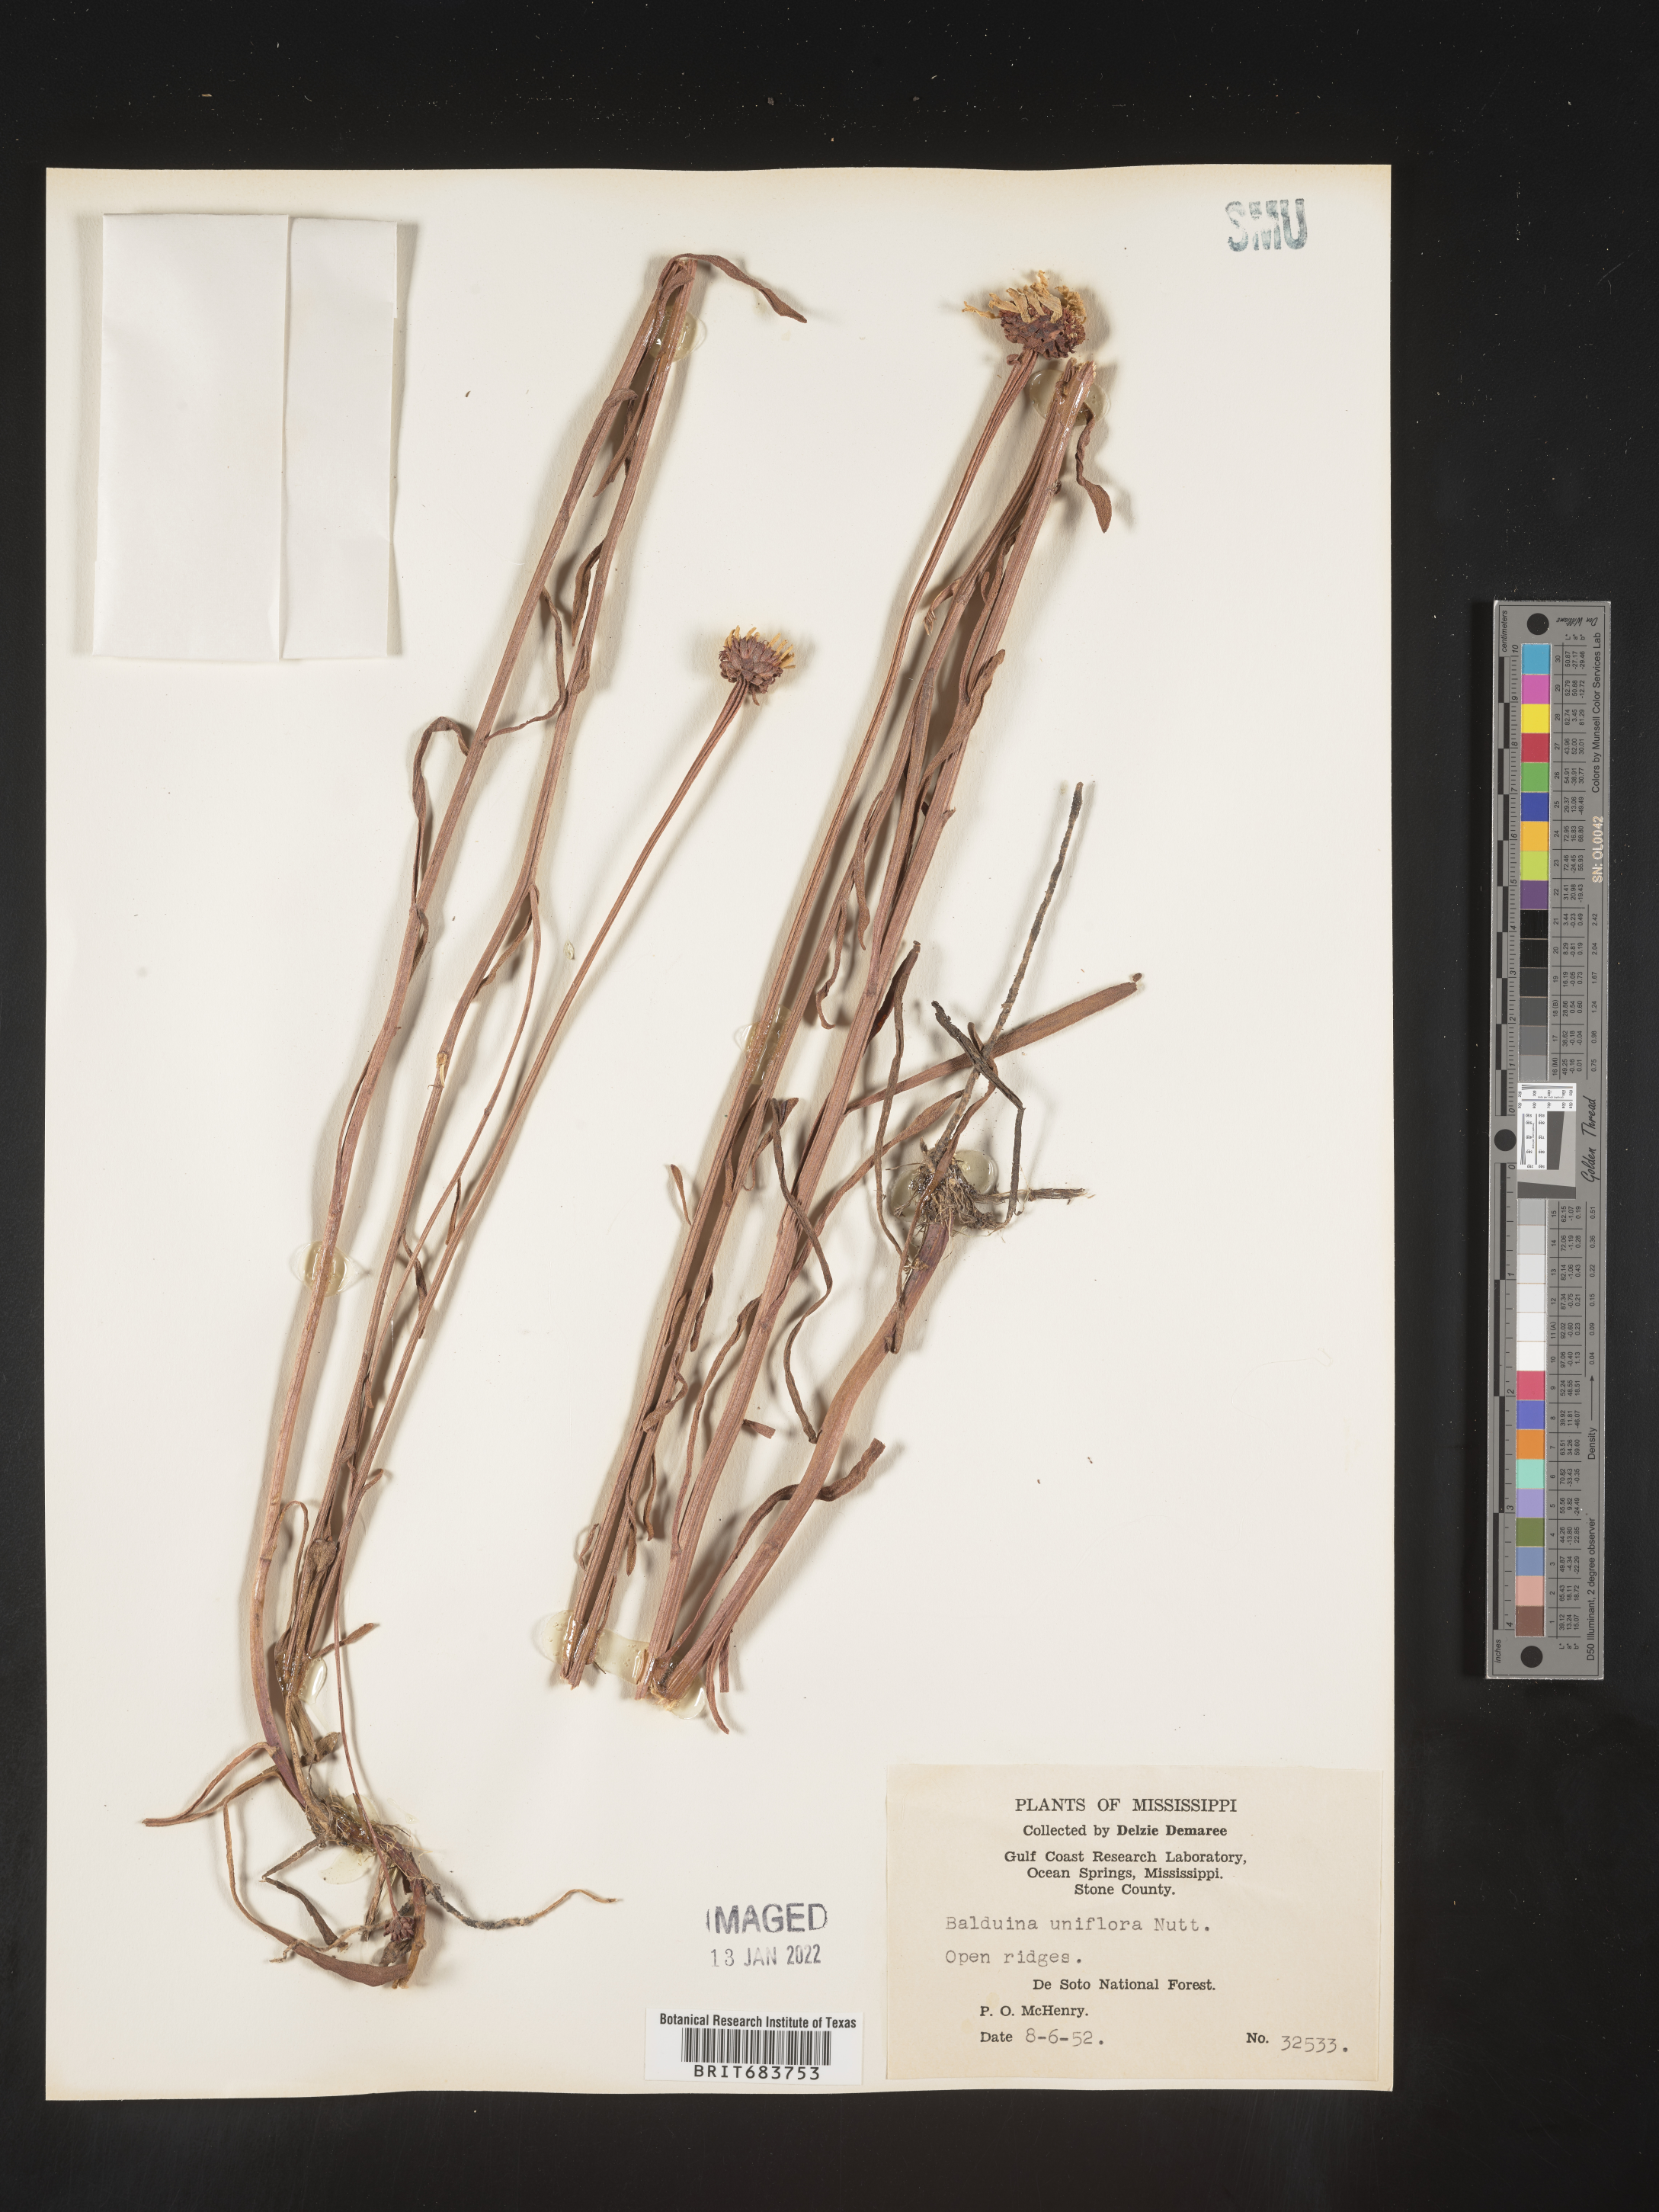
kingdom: Plantae
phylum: Tracheophyta
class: Magnoliopsida
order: Asterales
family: Asteraceae
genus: Balduina
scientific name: Balduina uniflora
